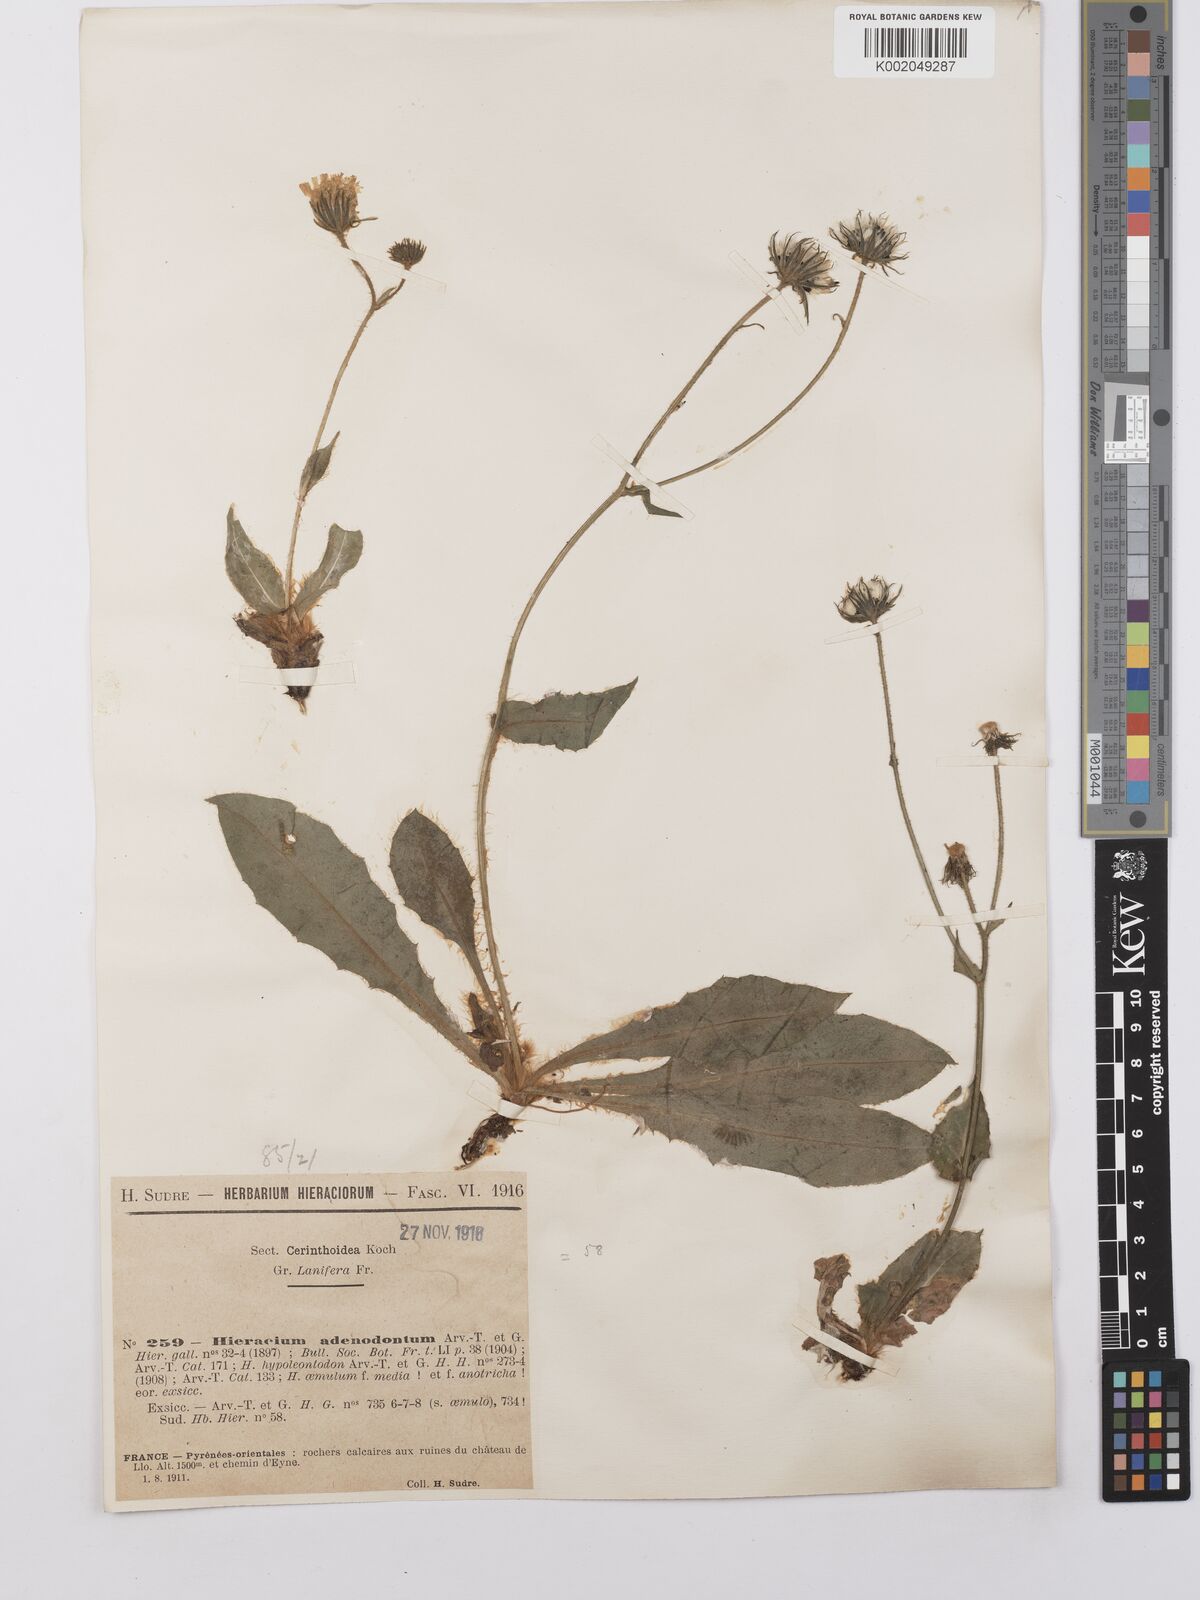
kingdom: Plantae
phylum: Tracheophyta
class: Magnoliopsida
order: Asterales
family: Asteraceae
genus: Hieracium
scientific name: Hieracium adenodontum
